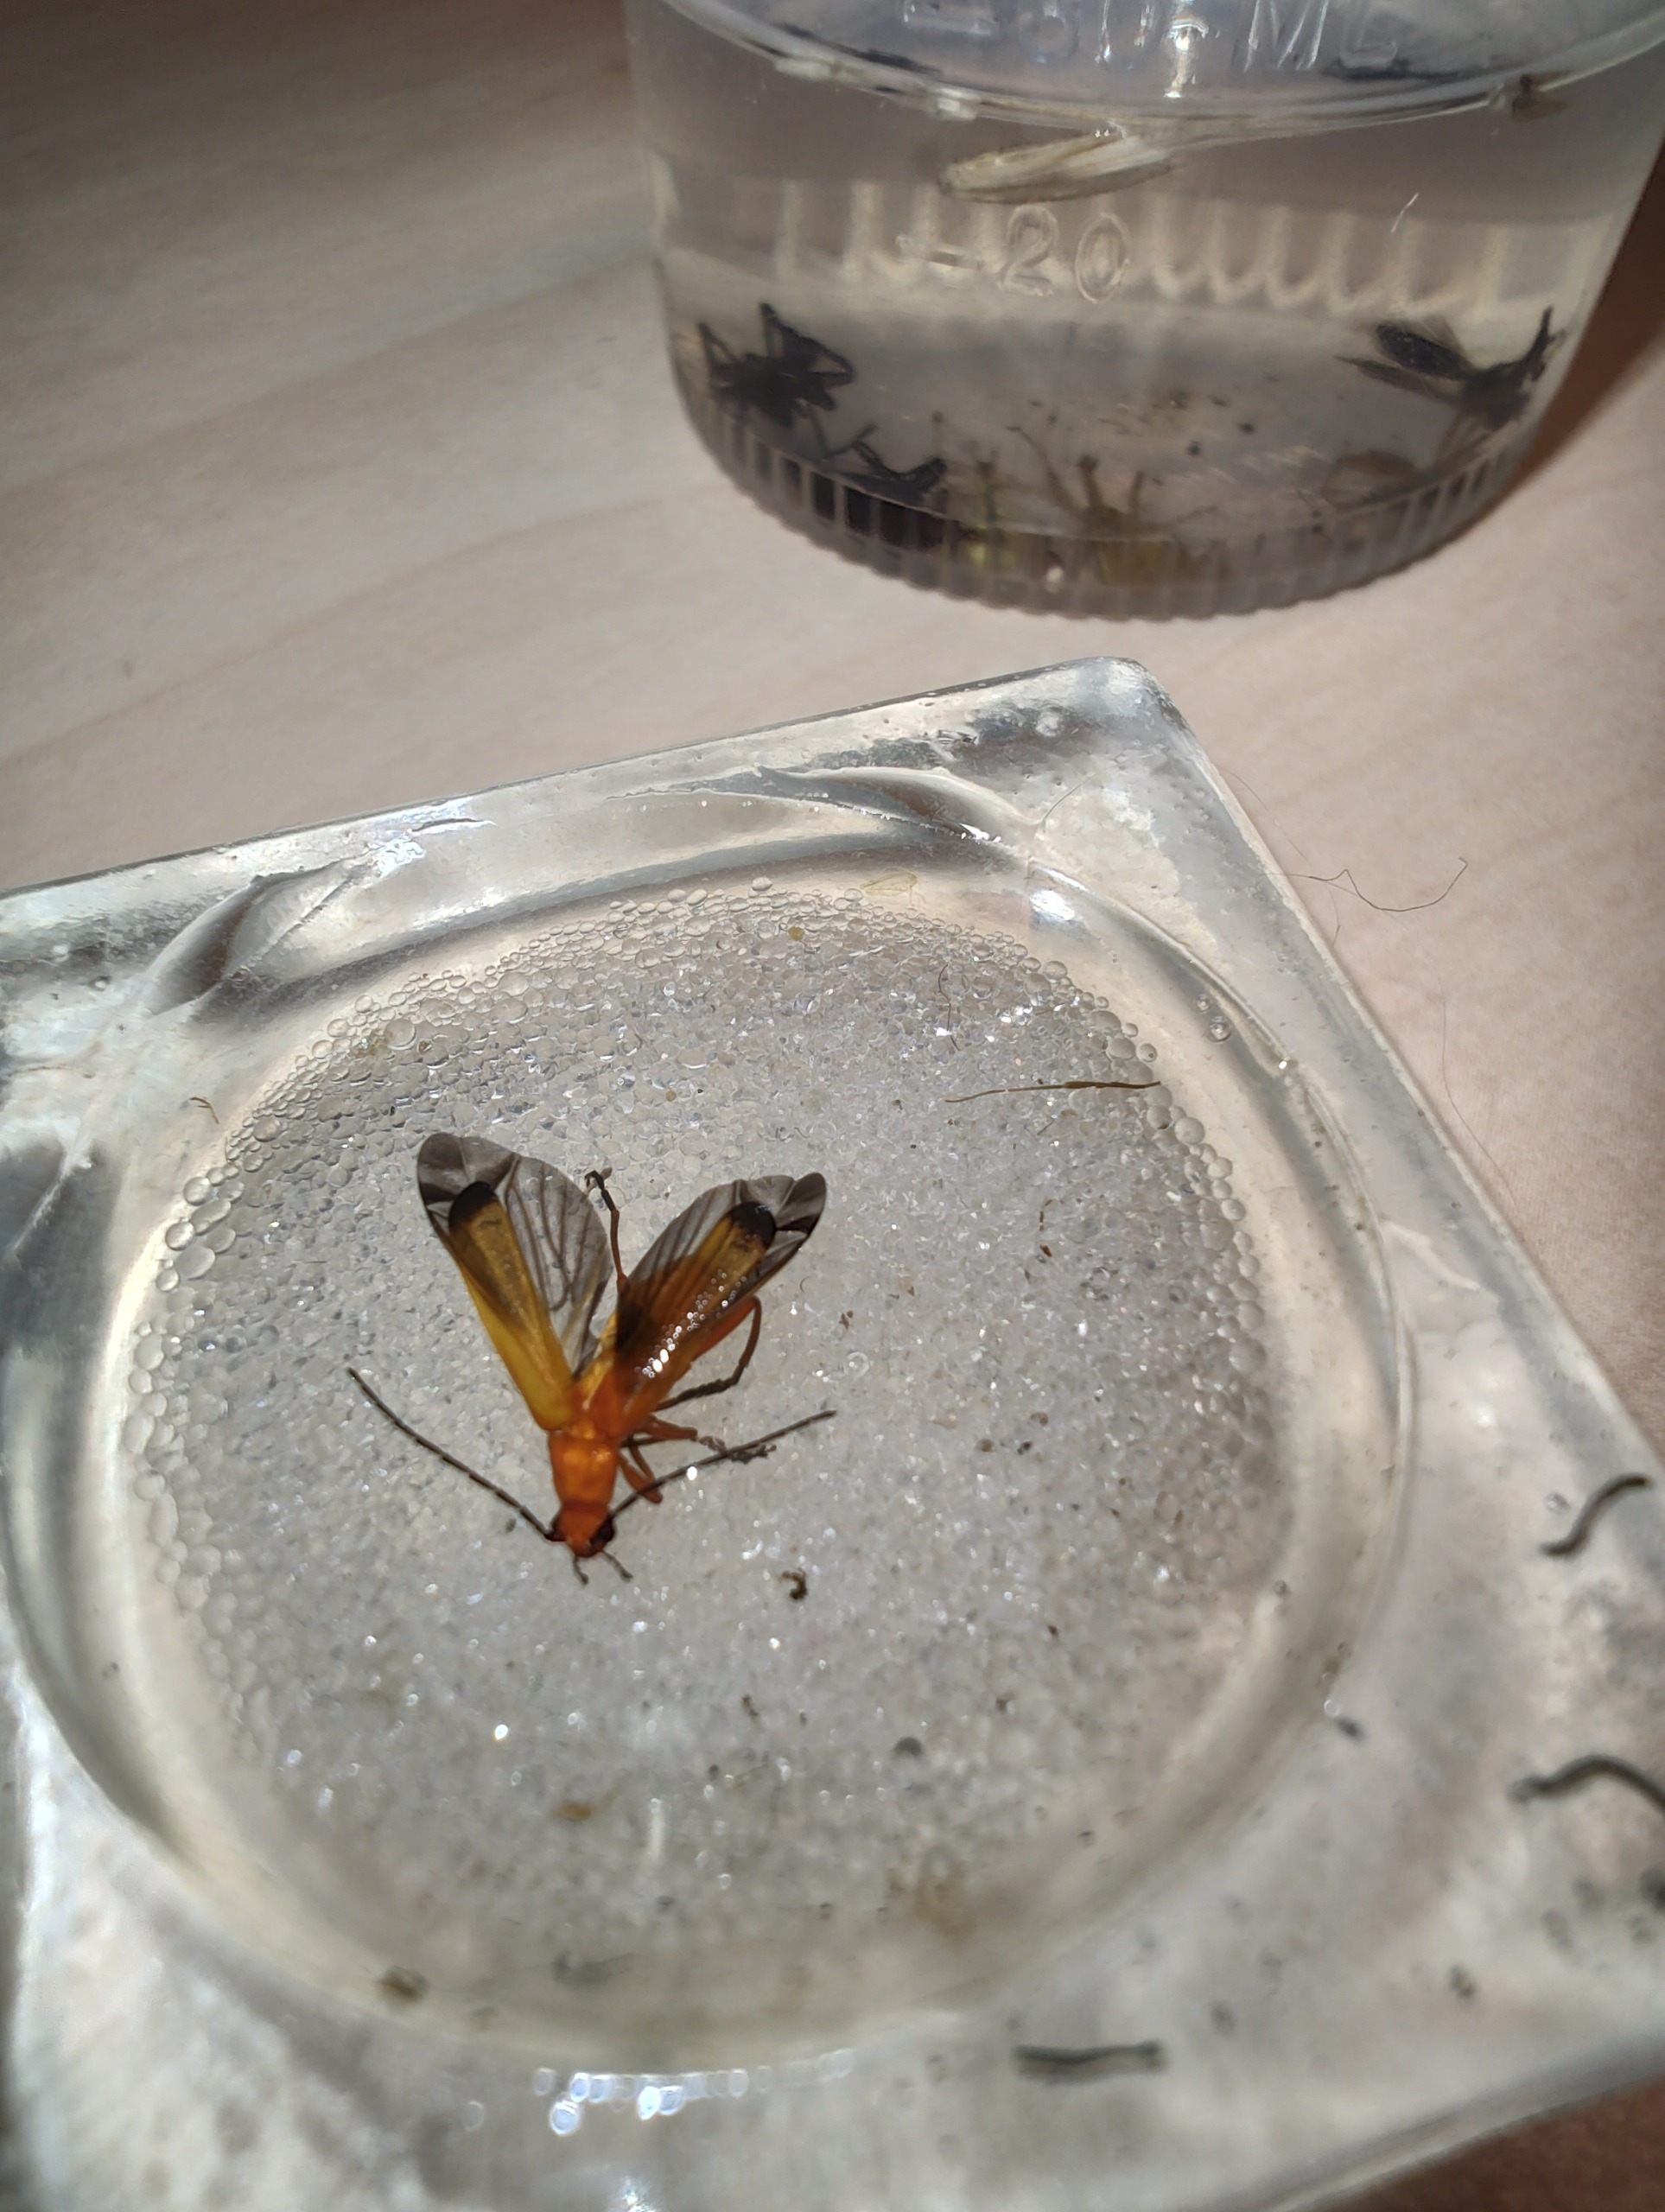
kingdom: Animalia
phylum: Arthropoda
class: Insecta
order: Coleoptera
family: Cantharidae
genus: Rhagonycha
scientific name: Rhagonycha fulva
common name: Præstebille
